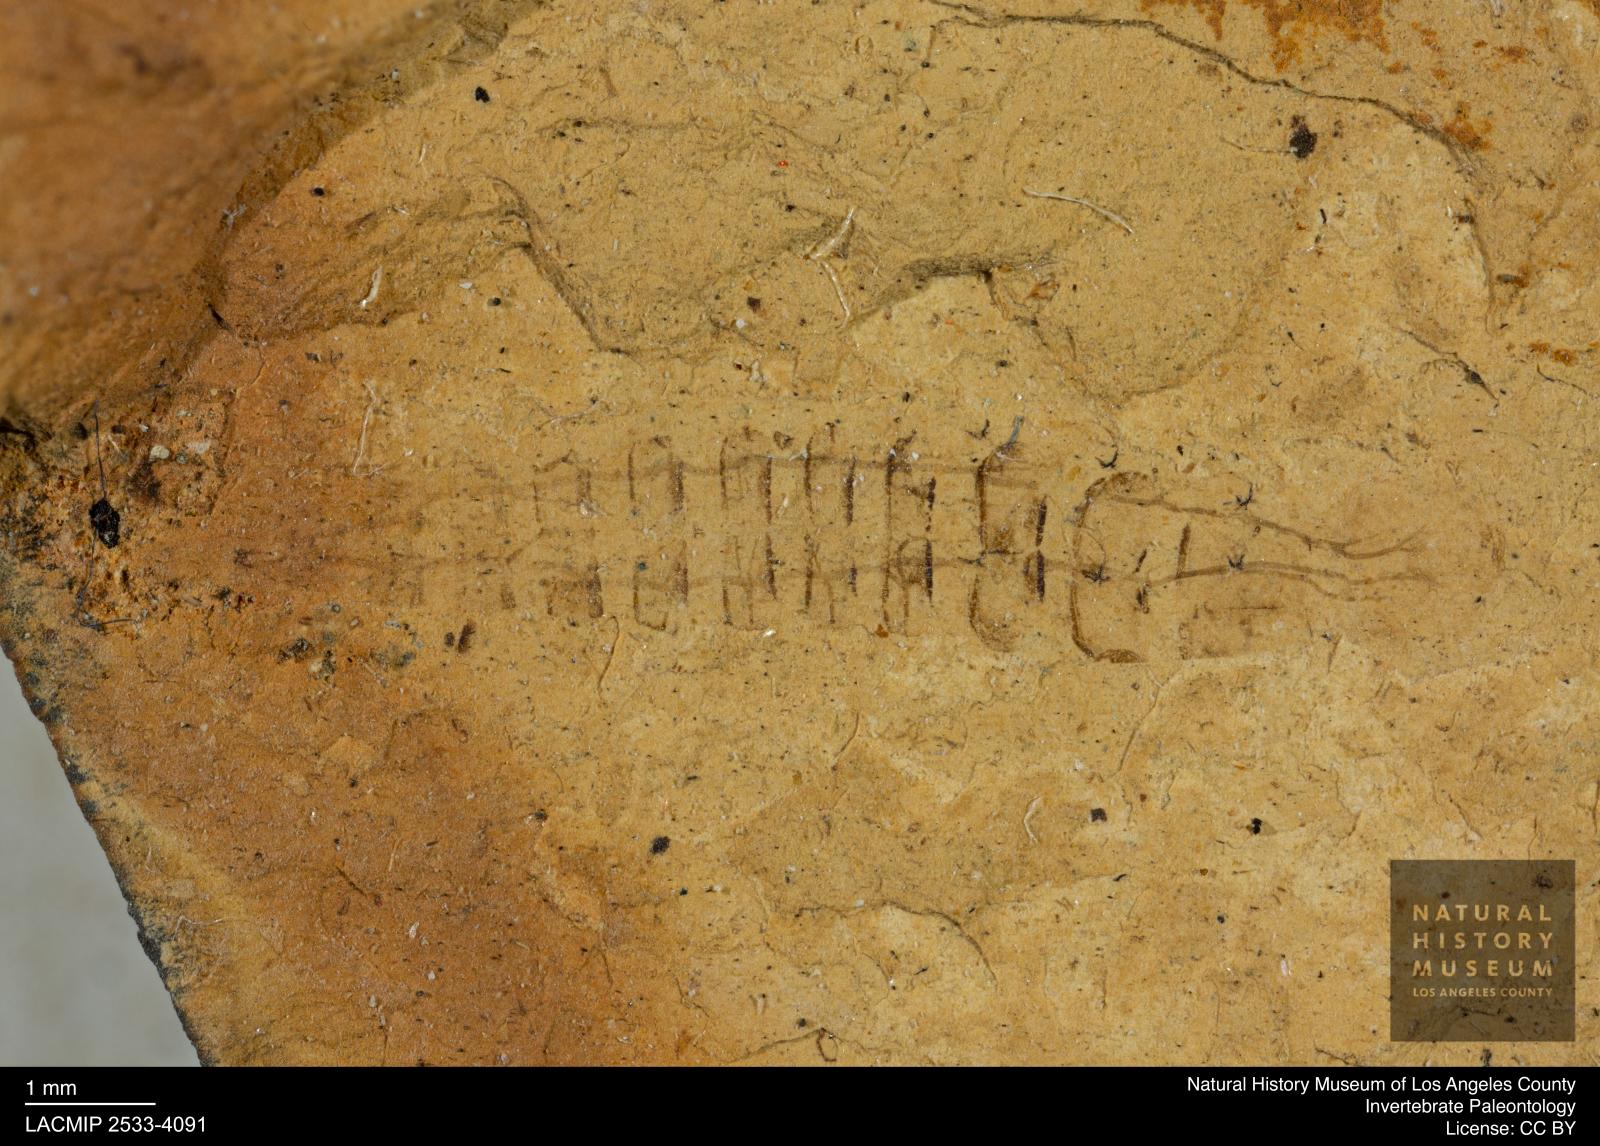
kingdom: Animalia
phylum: Arthropoda
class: Insecta
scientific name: Insecta
